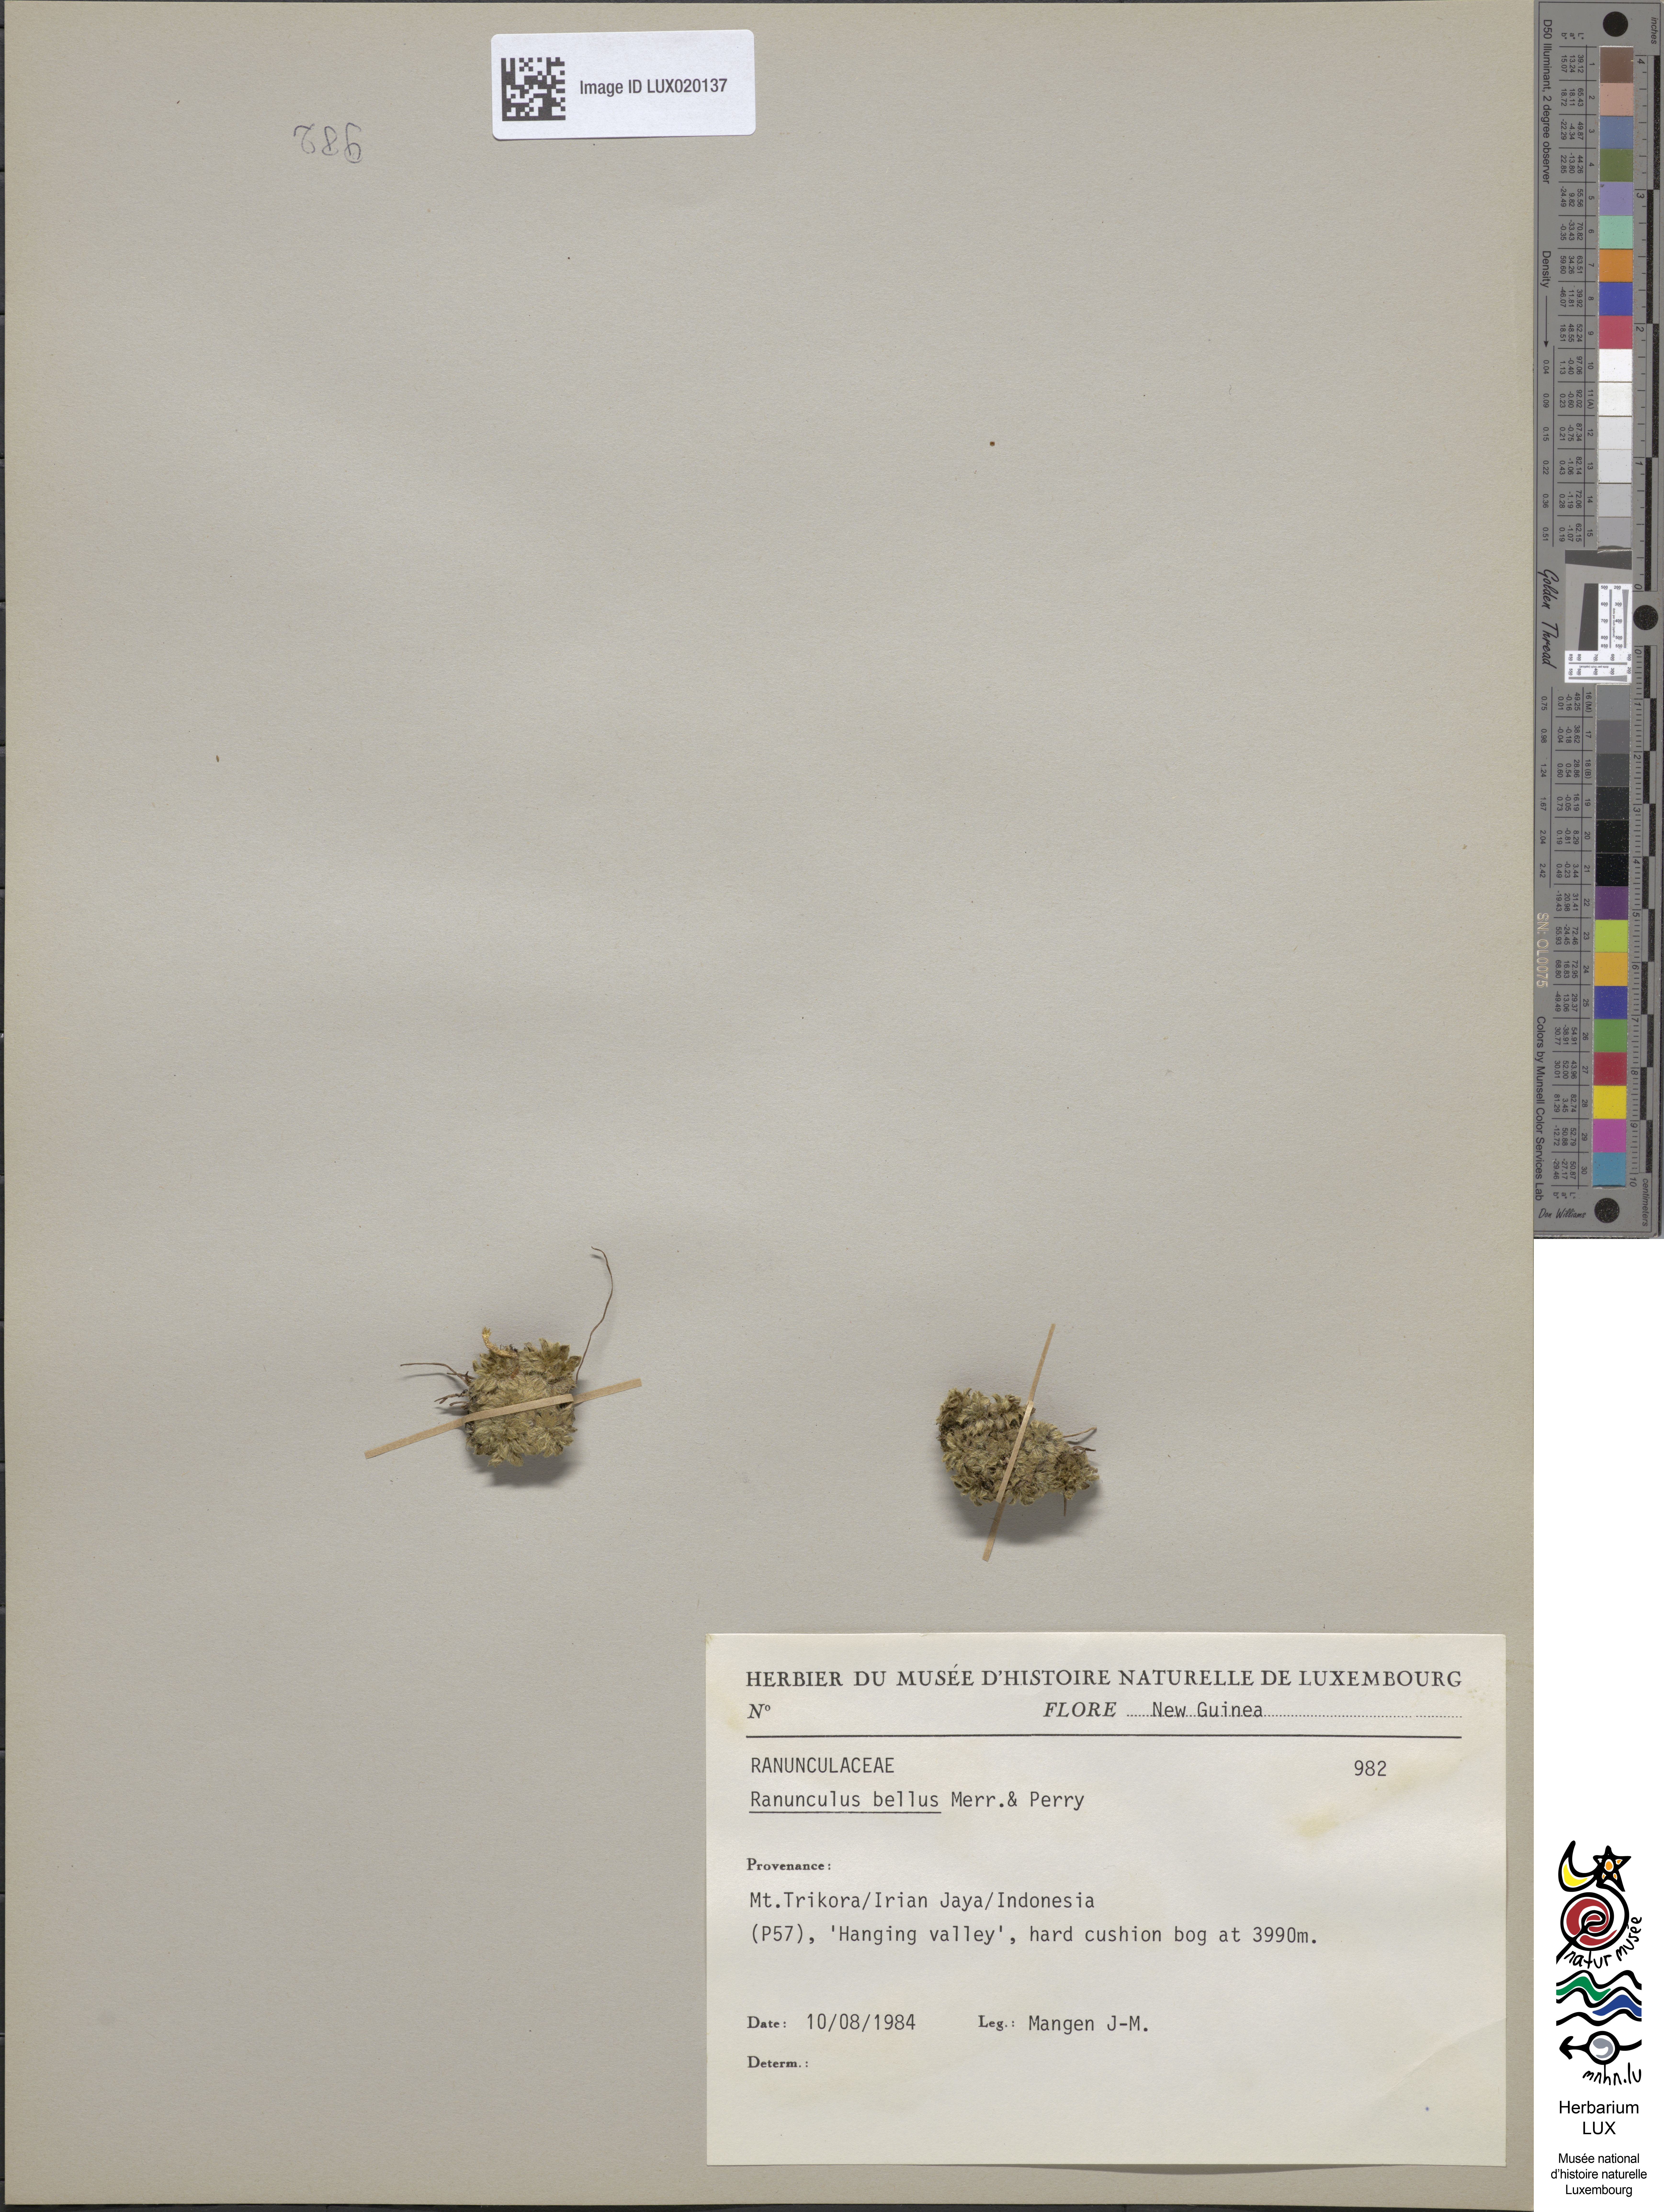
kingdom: Plantae
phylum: Tracheophyta
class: Magnoliopsida
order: Ranunculales
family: Ranunculaceae
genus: Ranunculus
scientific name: Ranunculus bellus
